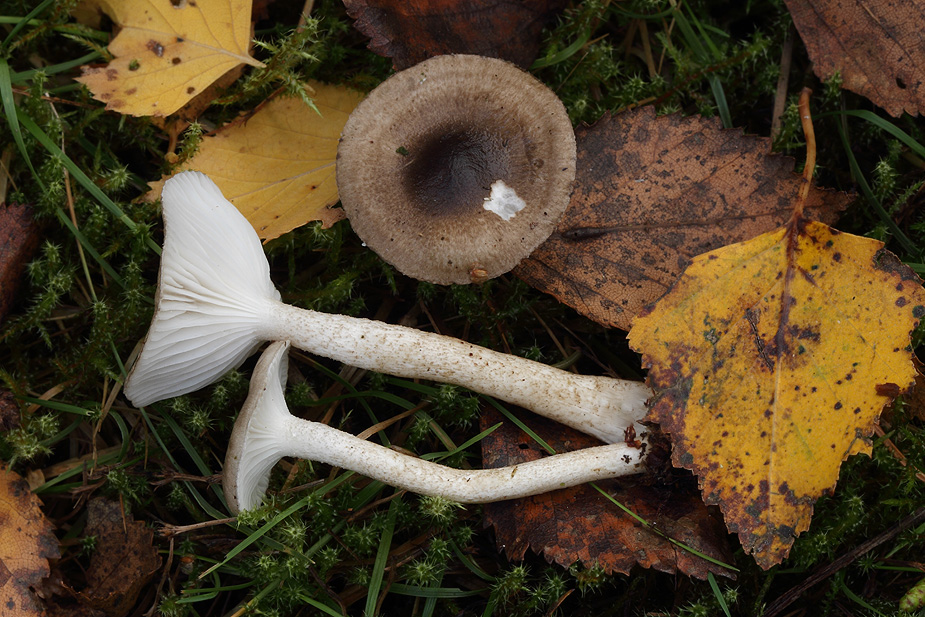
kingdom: Fungi
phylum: Basidiomycota
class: Agaricomycetes
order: Agaricales
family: Hygrophoraceae
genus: Hygrophorus
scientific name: Hygrophorus pustulatus
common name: mørkprikket sneglehat
